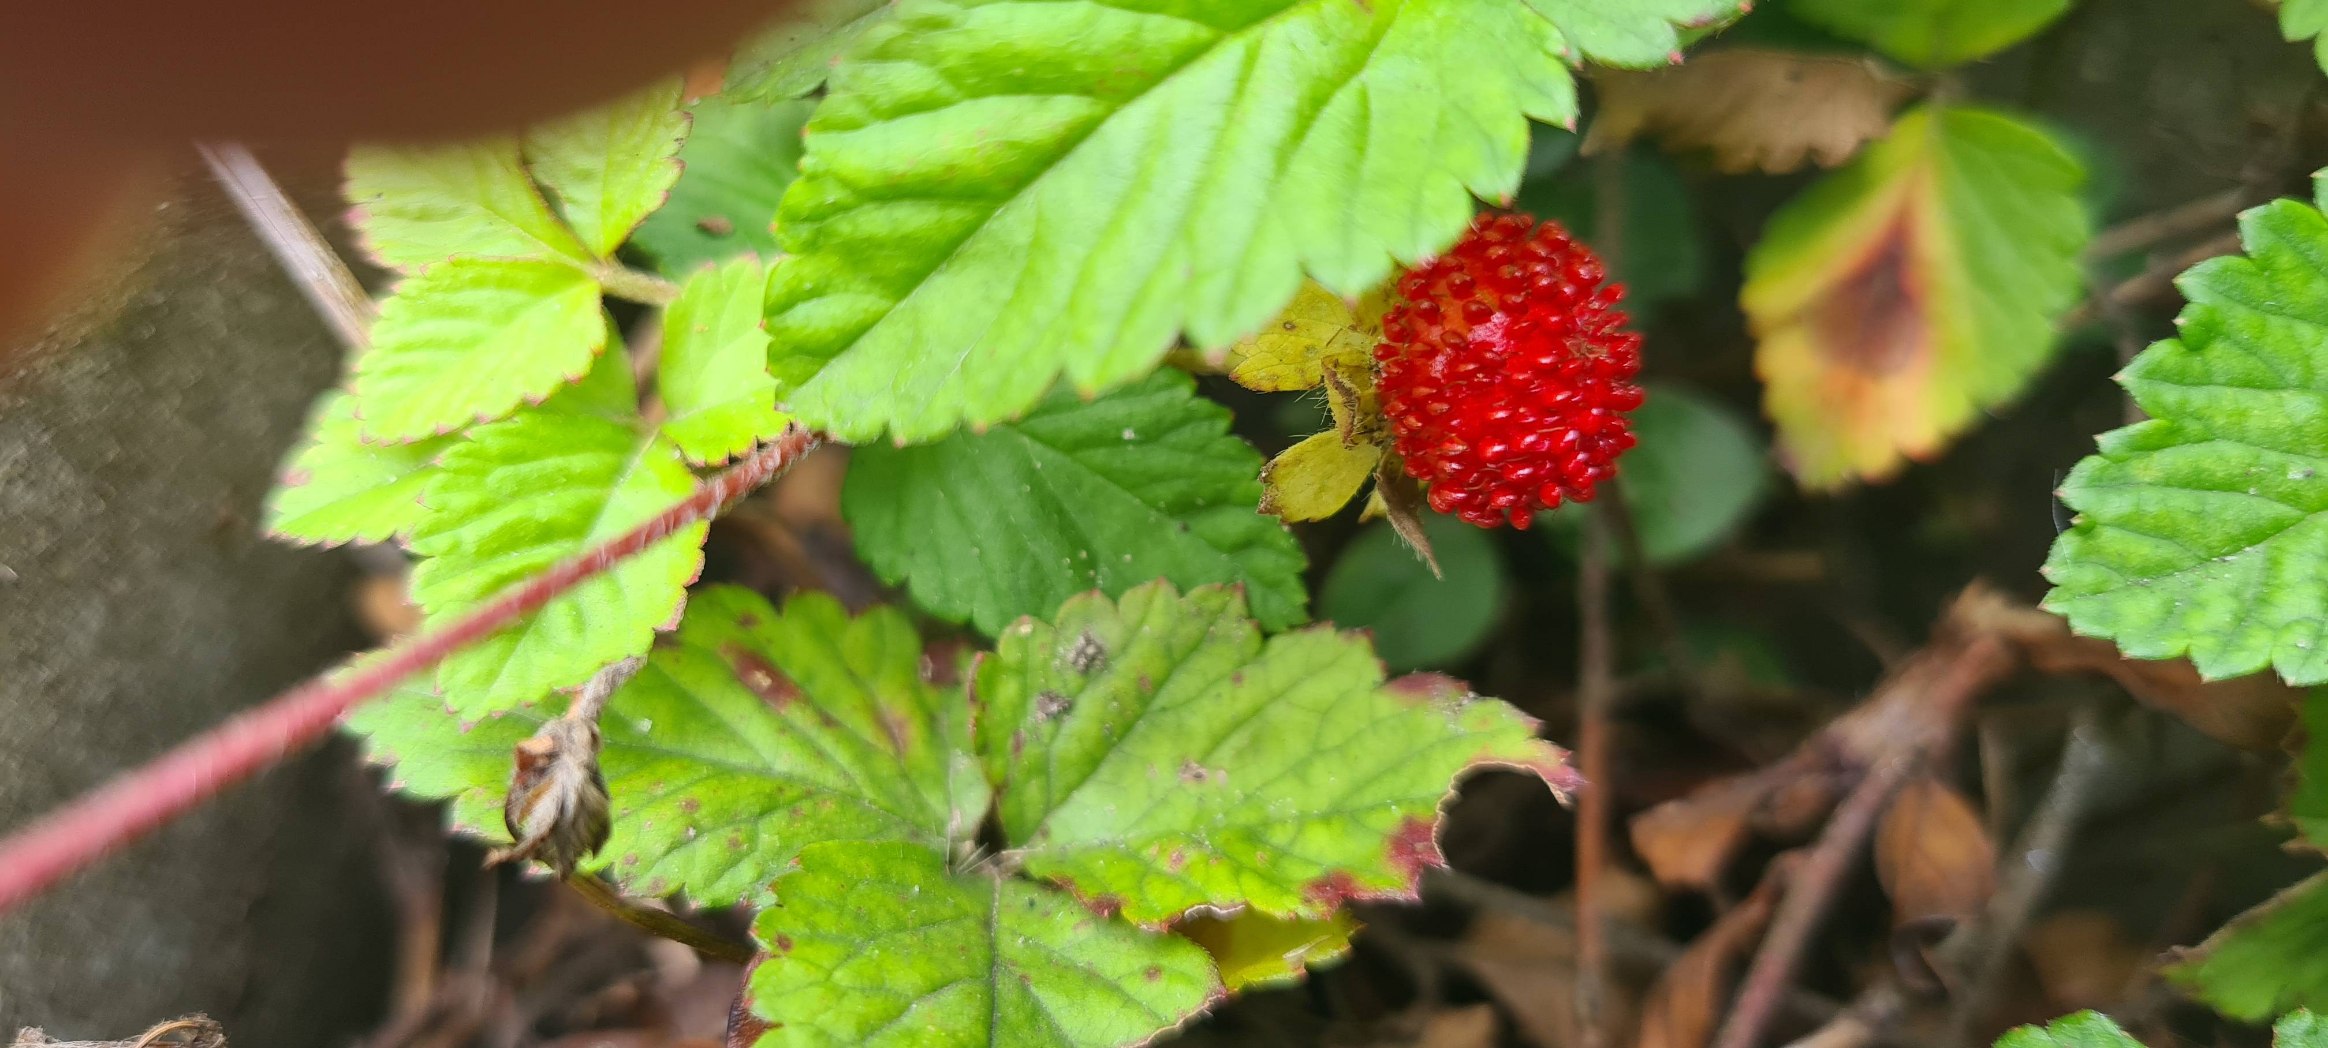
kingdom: Plantae
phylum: Tracheophyta
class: Magnoliopsida
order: Rosales
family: Rosaceae
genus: Potentilla
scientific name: Potentilla indica
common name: Indisk jordbær
